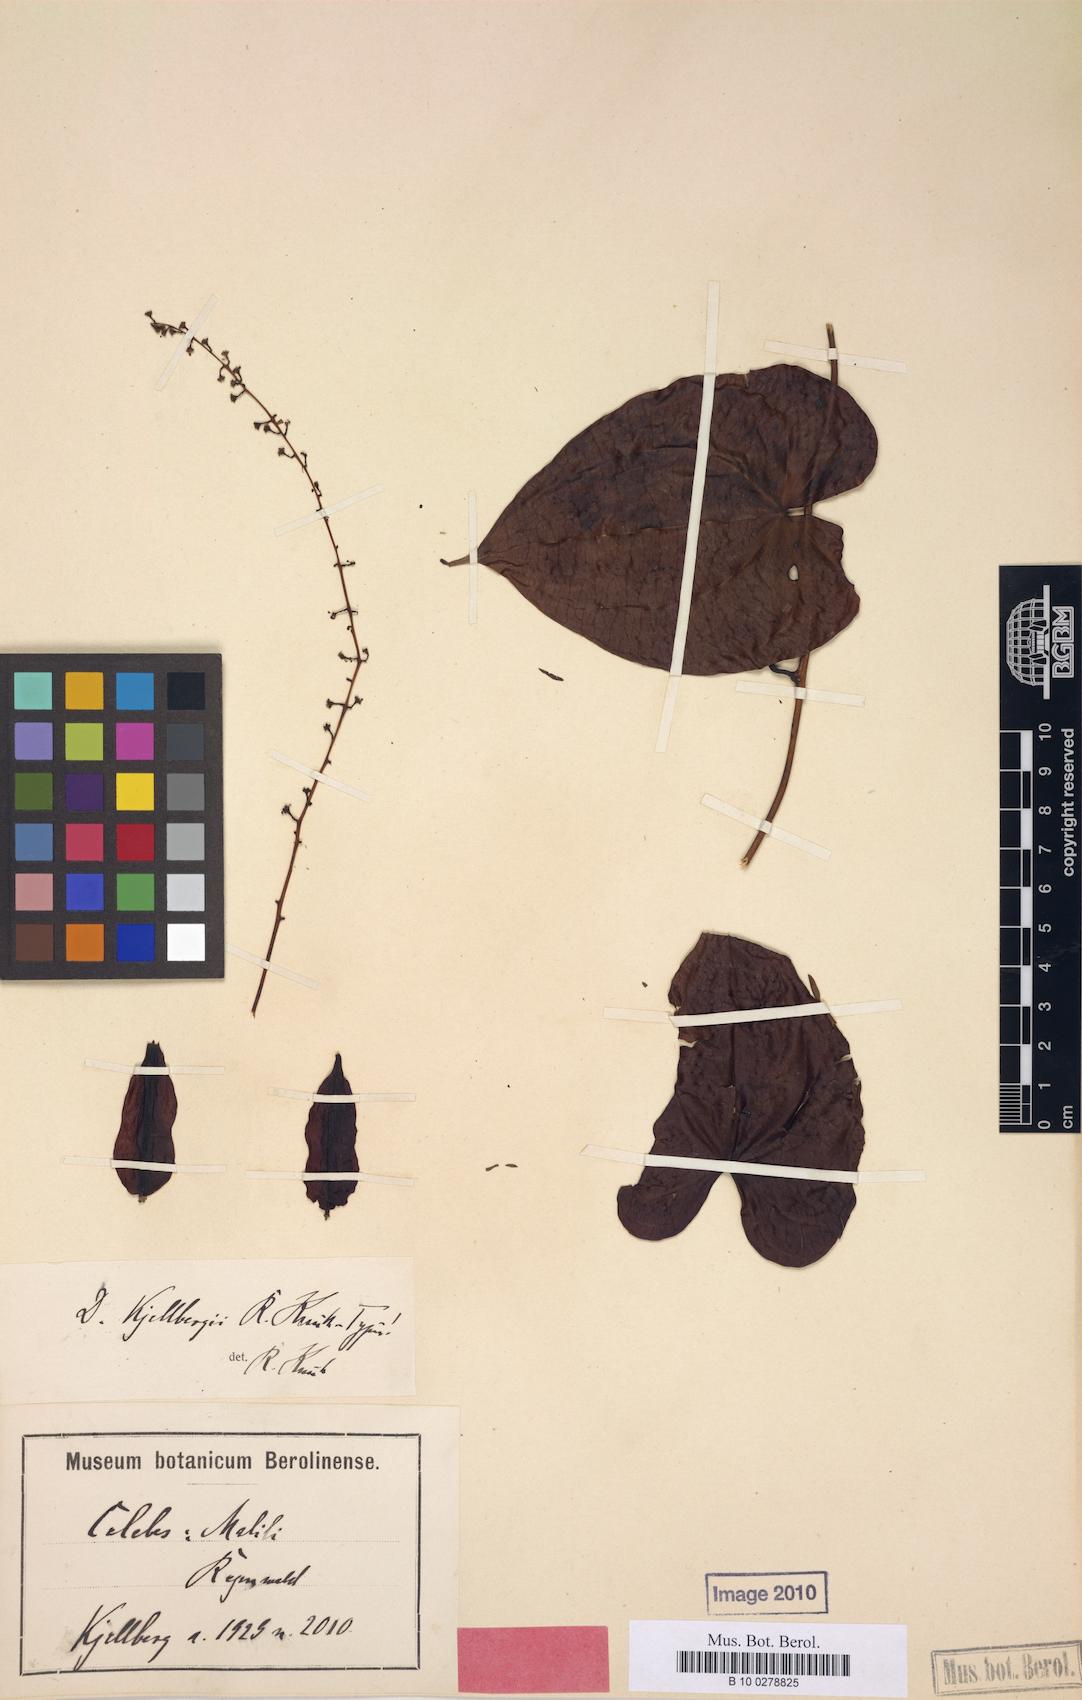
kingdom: Plantae
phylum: Tracheophyta
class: Liliopsida
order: Dioscoreales
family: Dioscoreaceae
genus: Dioscorea
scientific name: Dioscorea kjellbergii
